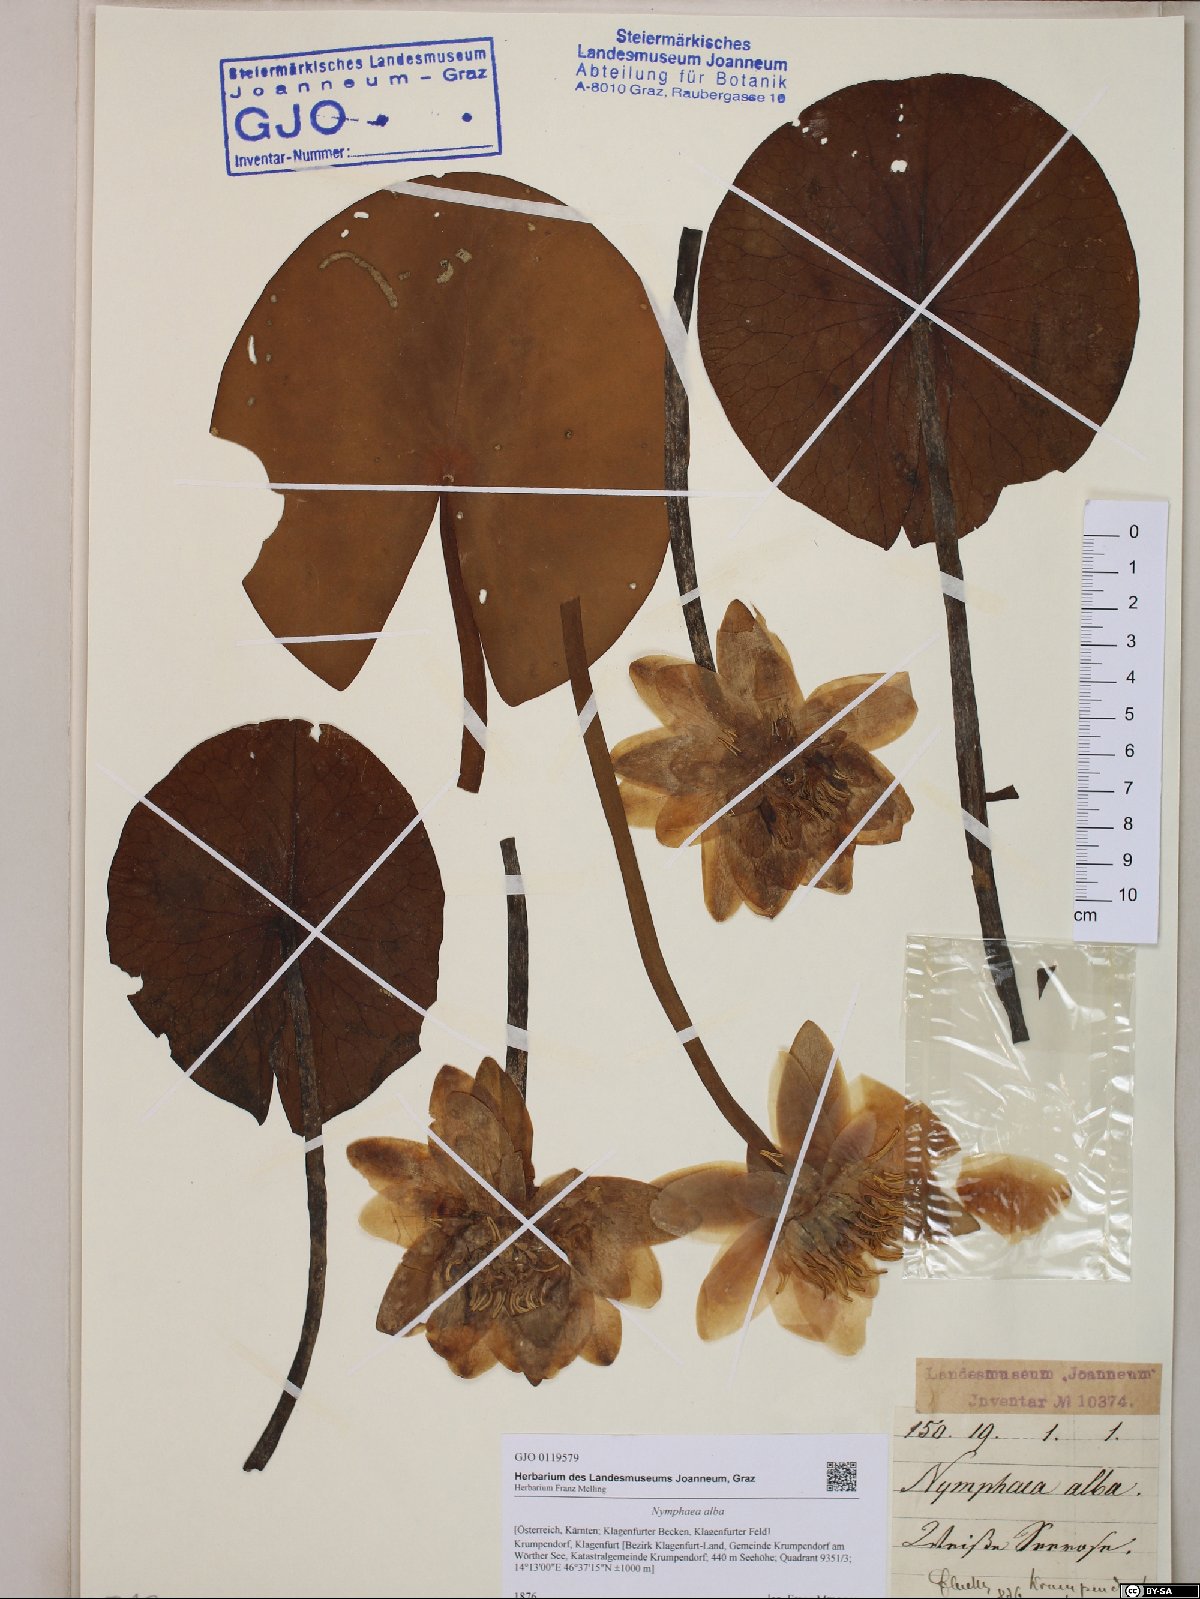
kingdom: Plantae
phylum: Tracheophyta
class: Magnoliopsida
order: Nymphaeales
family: Nymphaeaceae
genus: Nymphaea
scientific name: Nymphaea alba
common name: White water-lily
